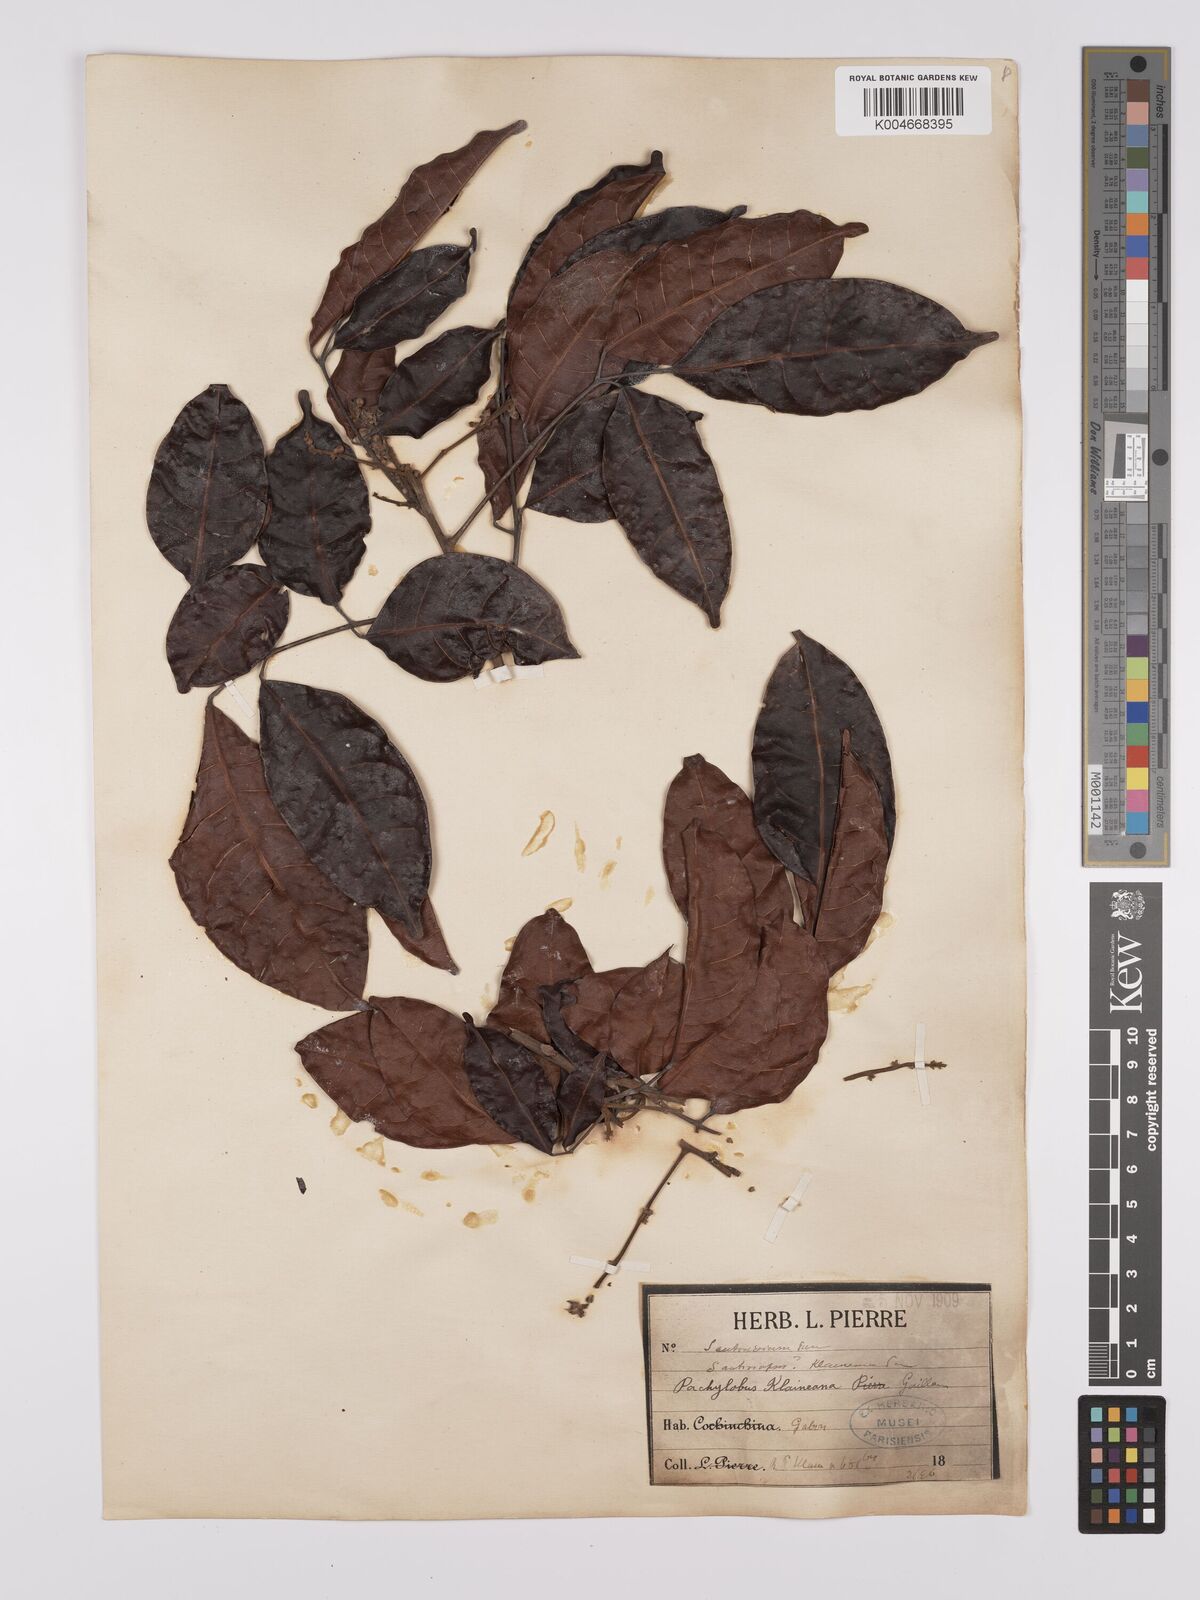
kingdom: Plantae
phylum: Tracheophyta
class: Magnoliopsida
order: Sapindales
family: Burseraceae
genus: Pachylobus
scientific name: Pachylobus klaineana
